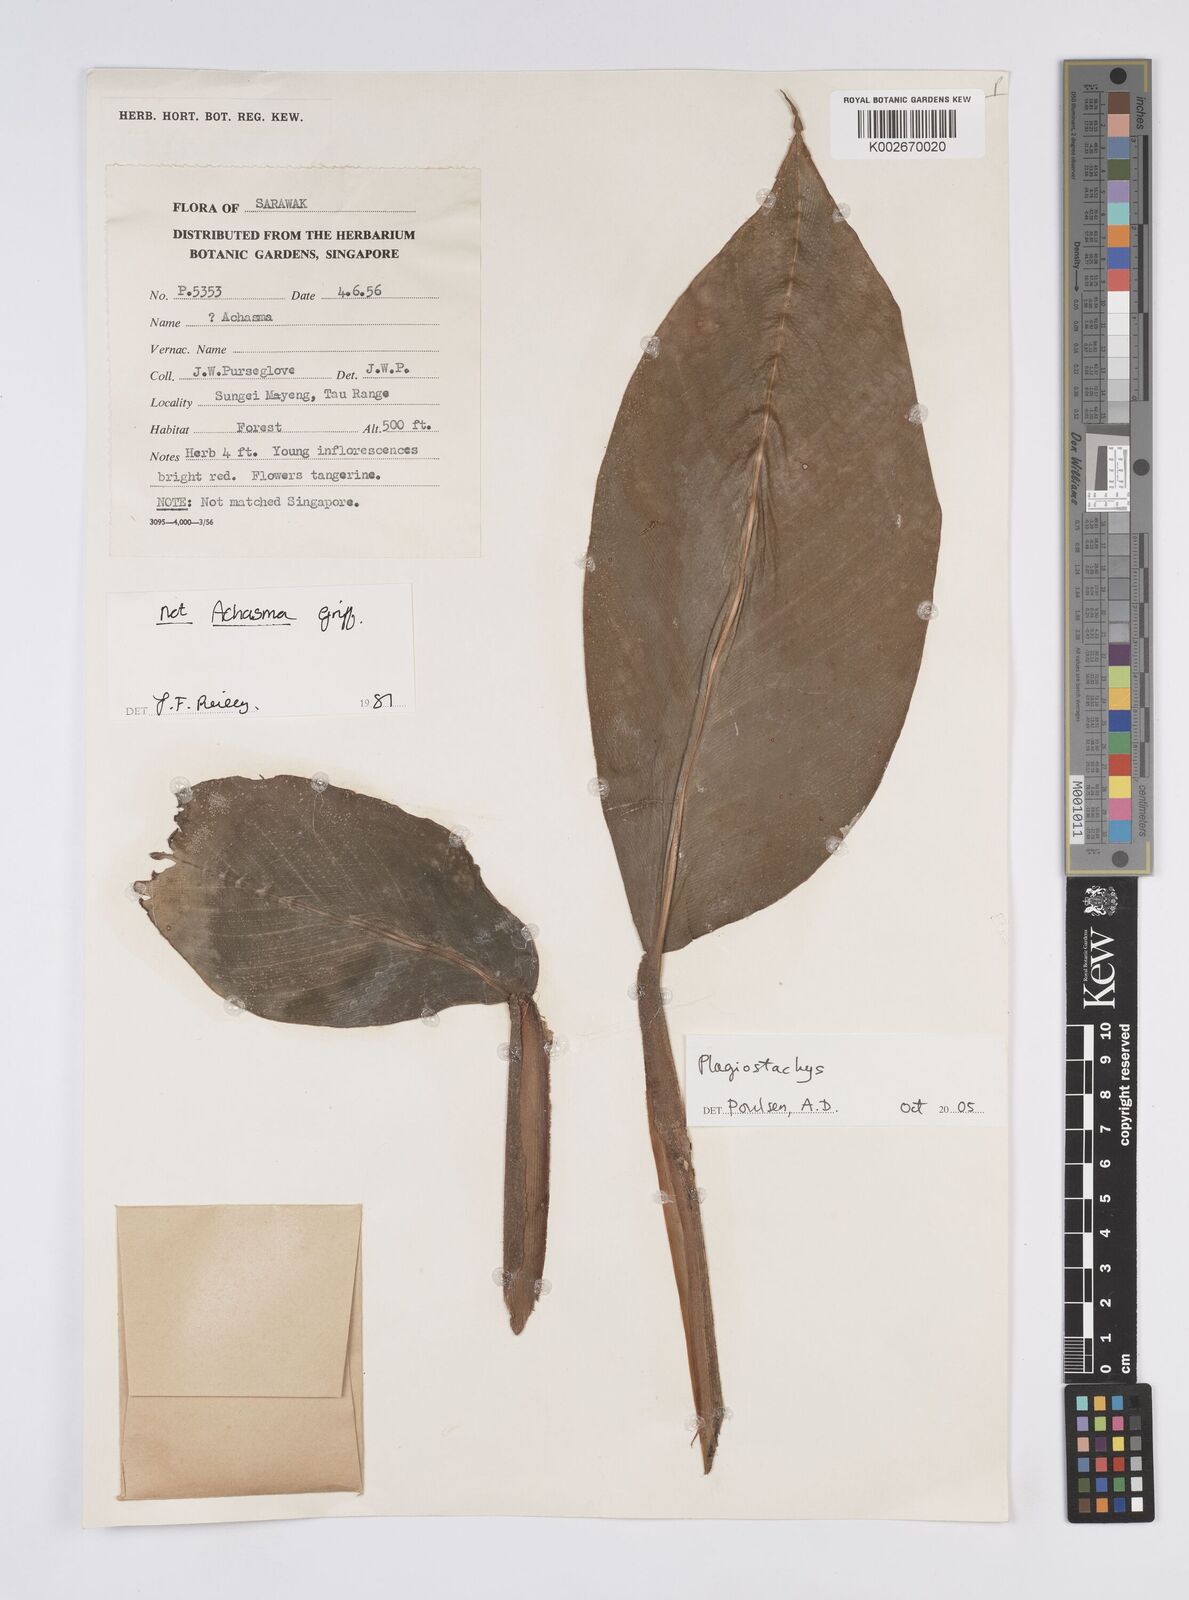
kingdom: Plantae
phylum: Tracheophyta
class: Liliopsida
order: Zingiberales
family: Zingiberaceae
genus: Plagiostachys
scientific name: Plagiostachys
